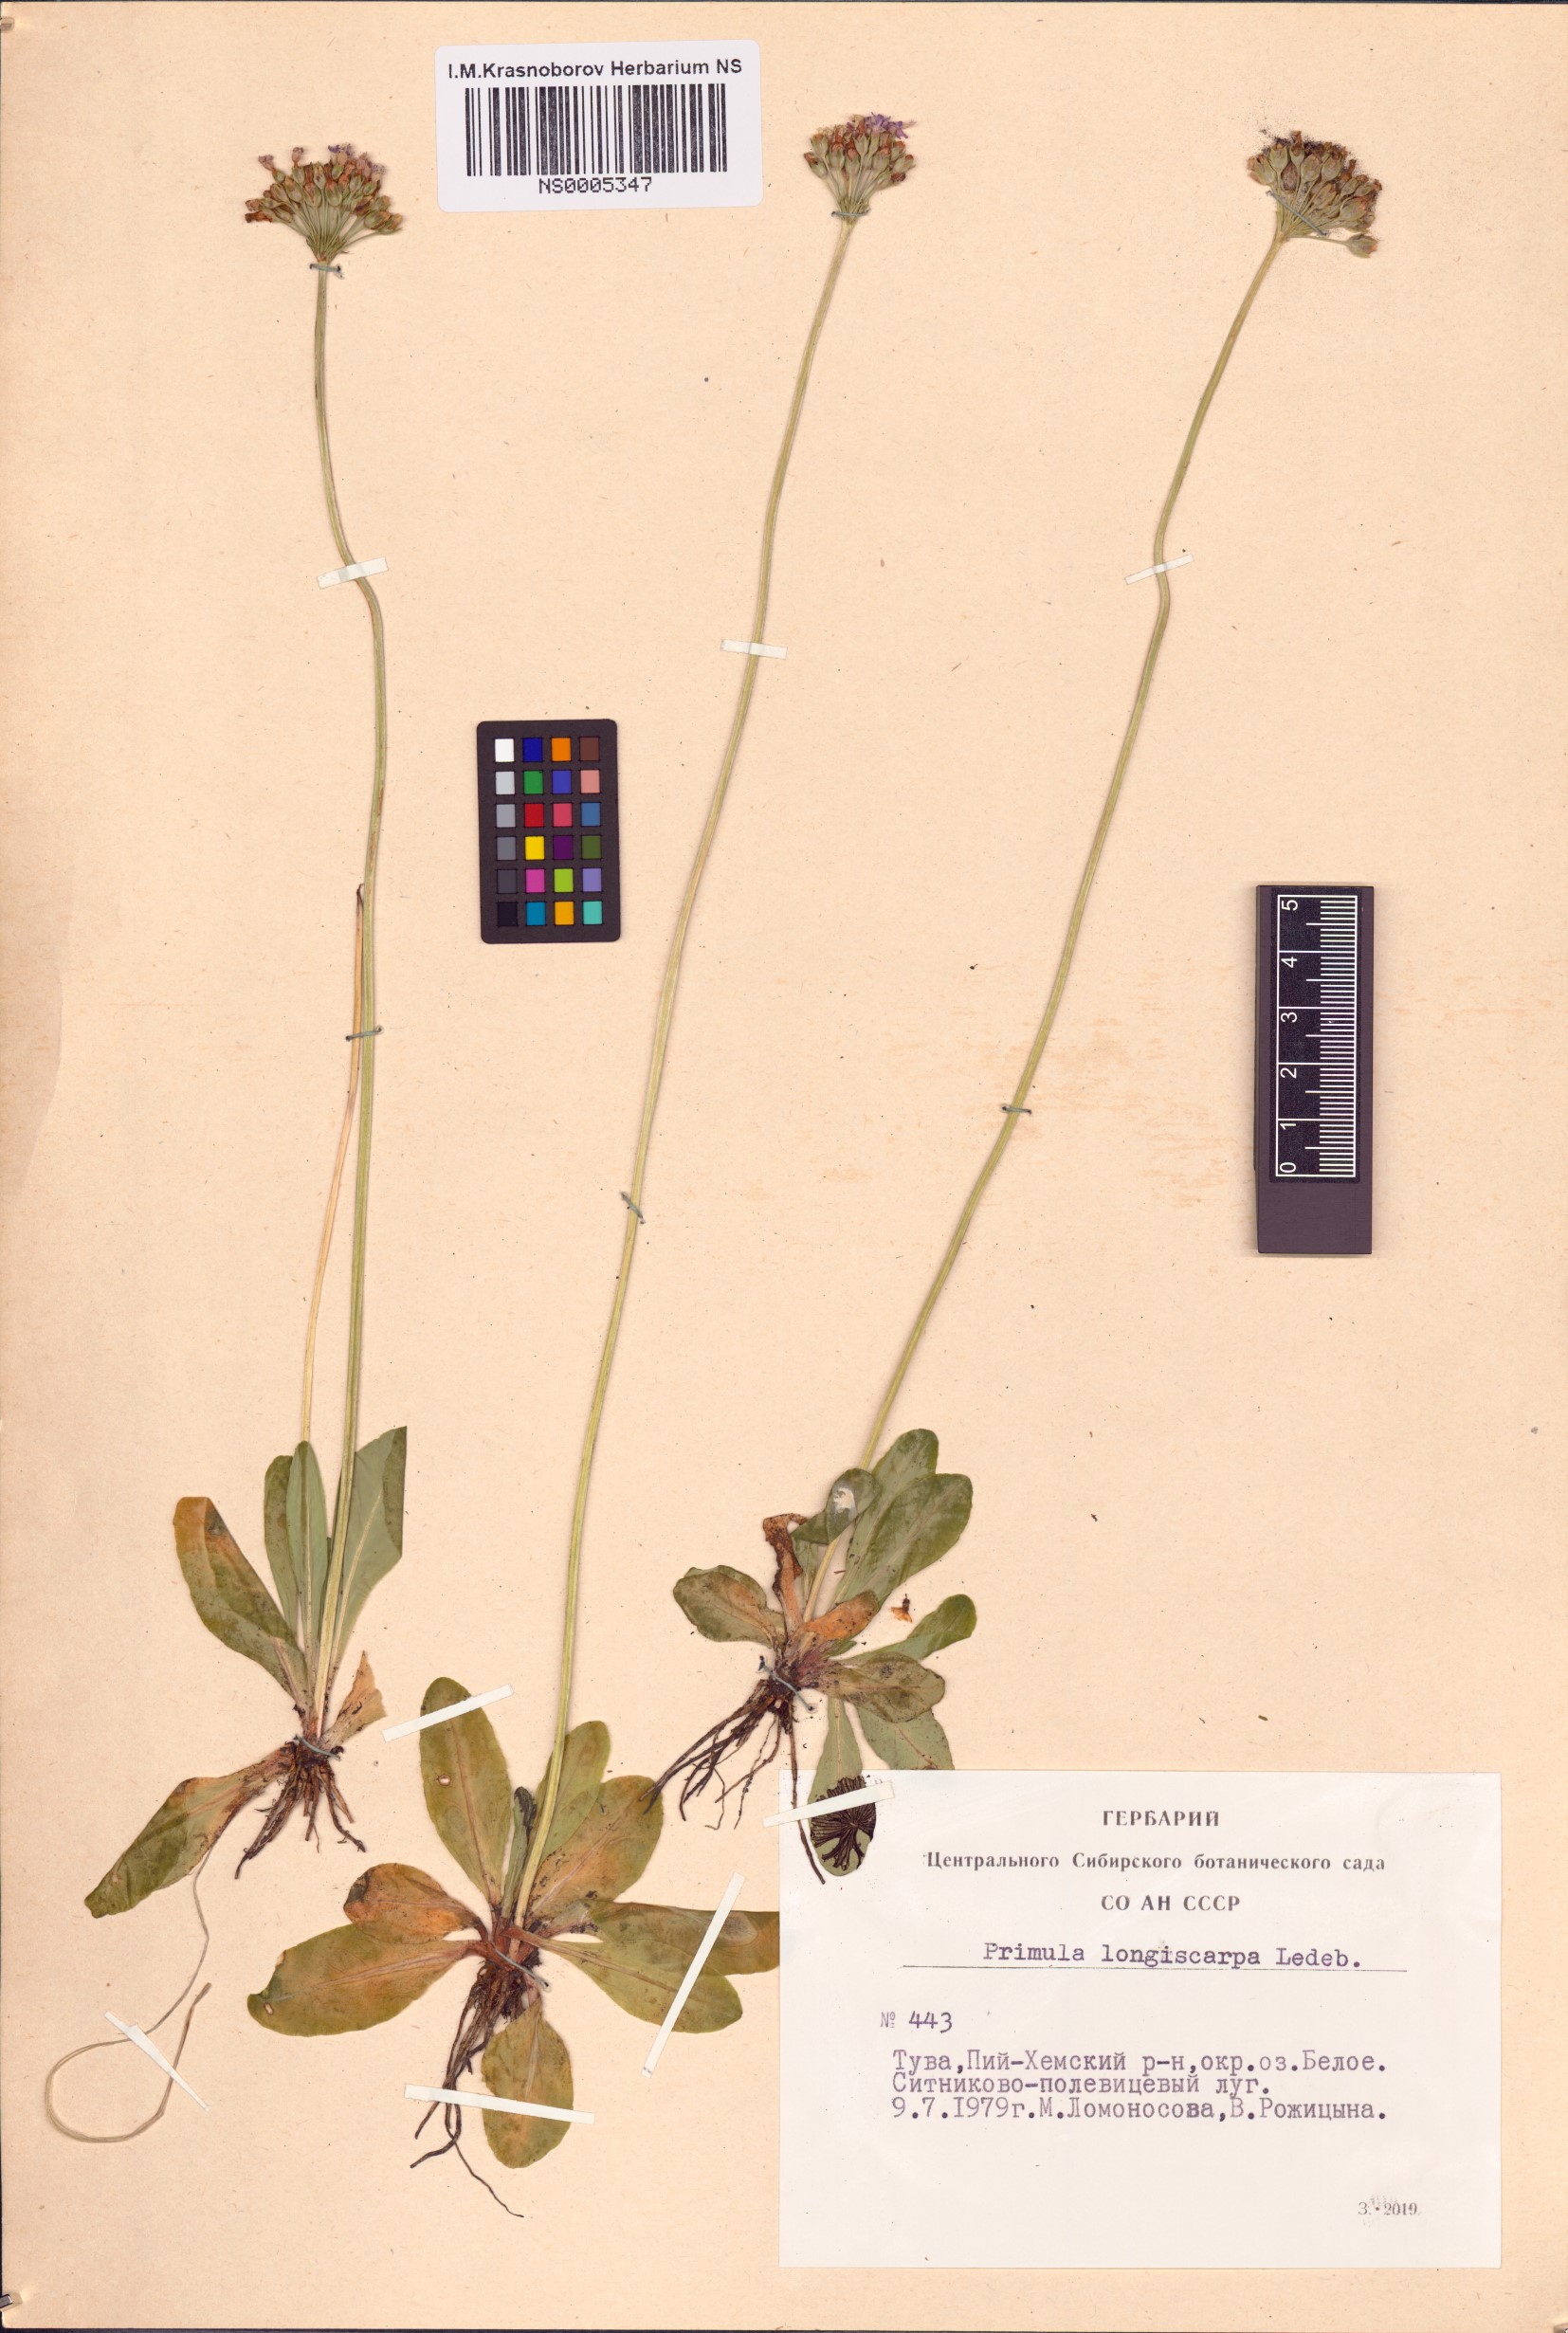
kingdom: Plantae
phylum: Tracheophyta
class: Magnoliopsida
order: Ericales
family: Primulaceae
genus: Primula
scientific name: Primula longiscapa
